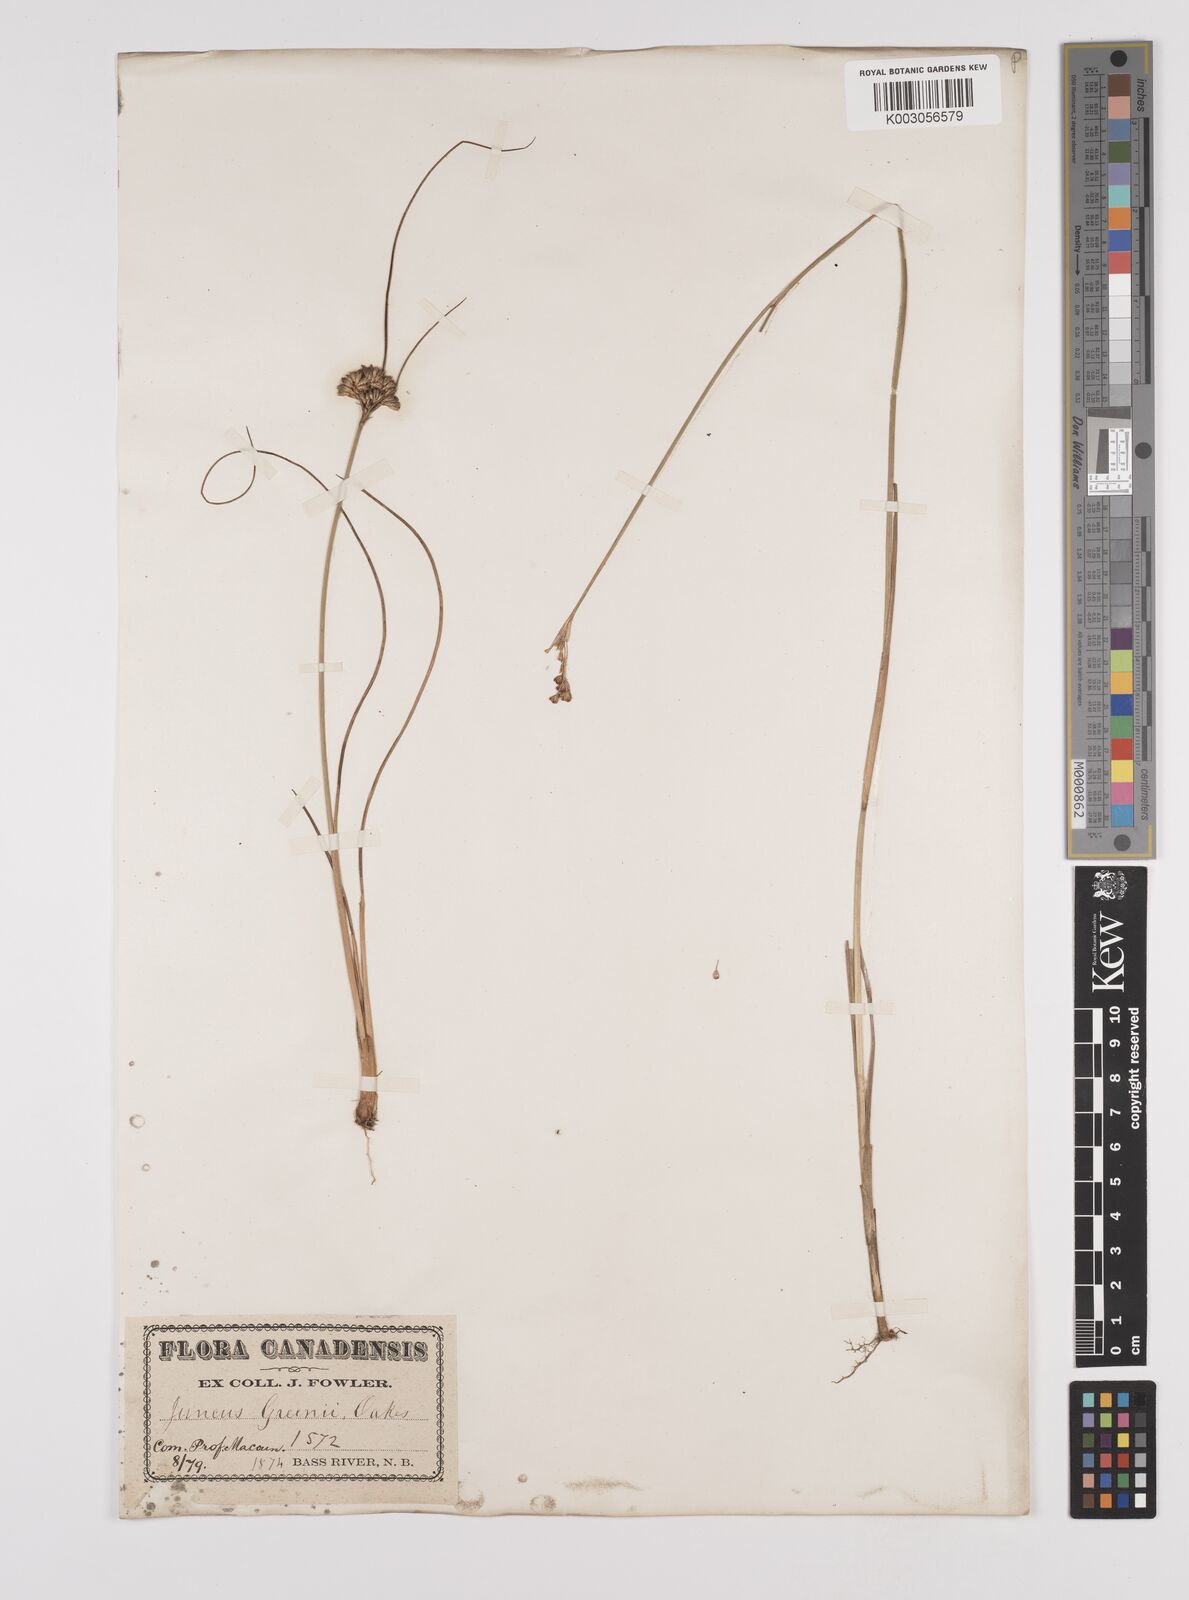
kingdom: Plantae
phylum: Tracheophyta
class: Liliopsida
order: Poales
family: Juncaceae
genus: Juncus
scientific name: Juncus greenei
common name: Greene's rush
